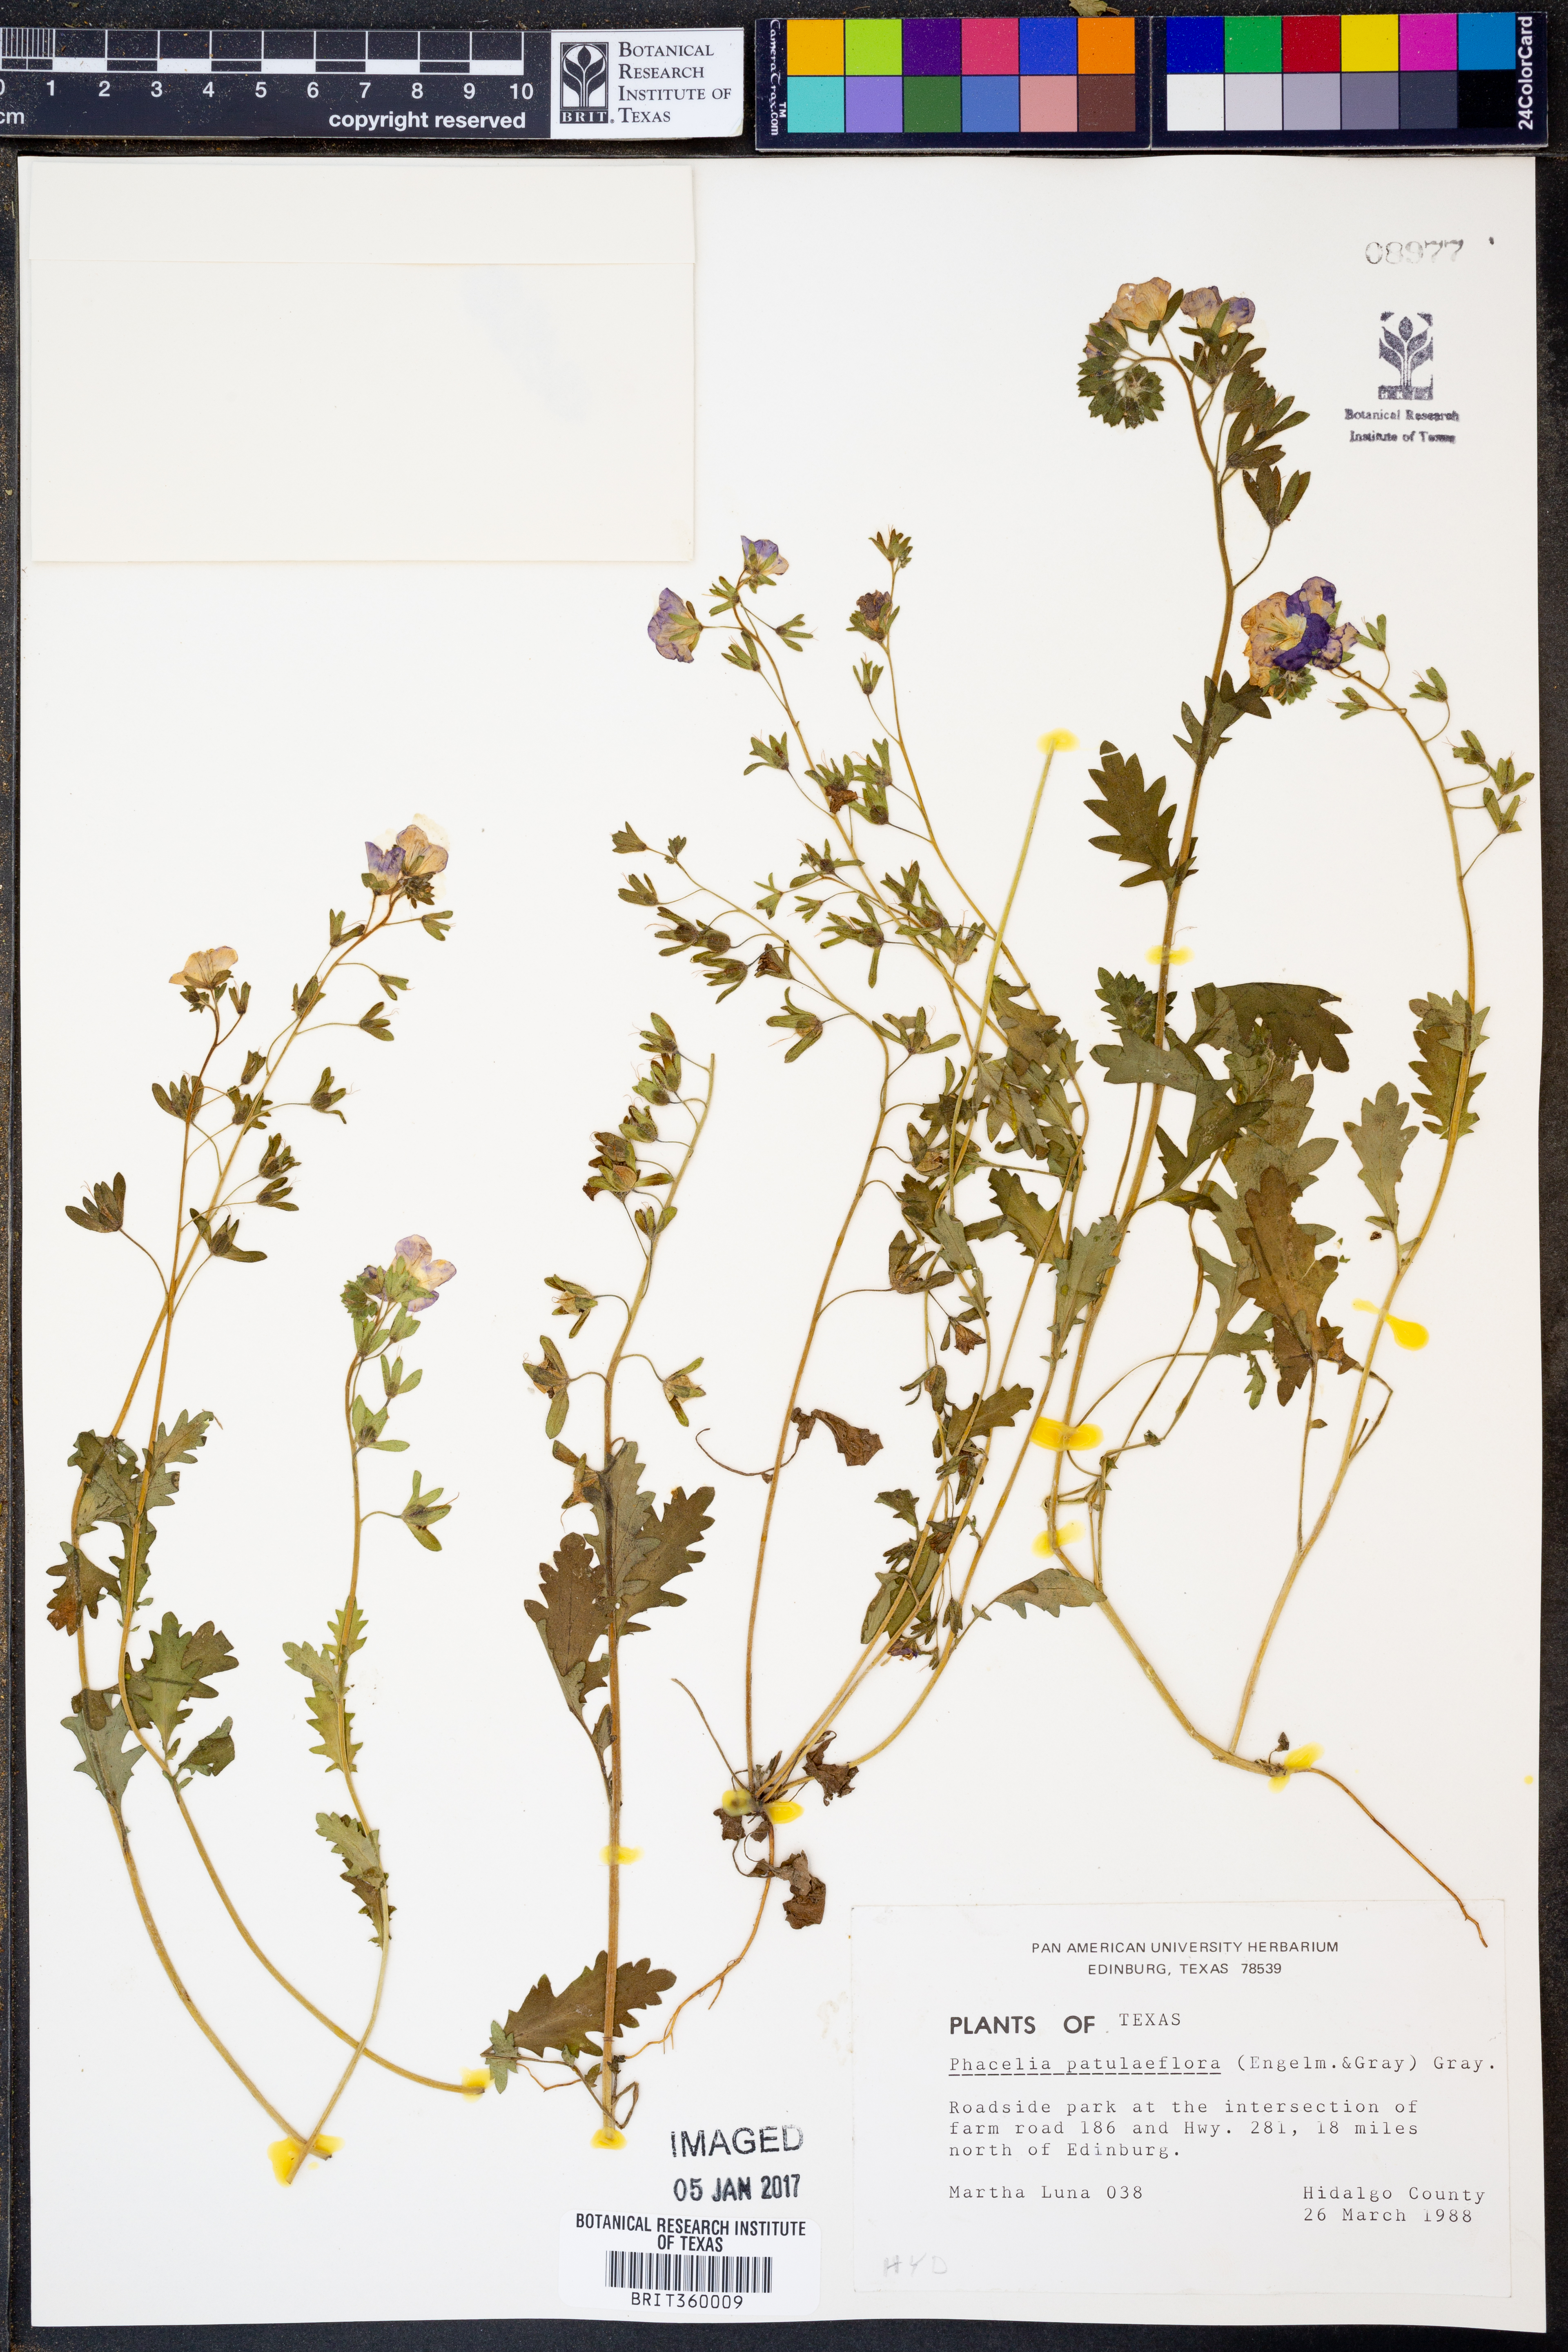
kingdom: Plantae
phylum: Tracheophyta
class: Magnoliopsida
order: Boraginales
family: Hydrophyllaceae
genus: Phacelia
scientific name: Phacelia patuliflora
